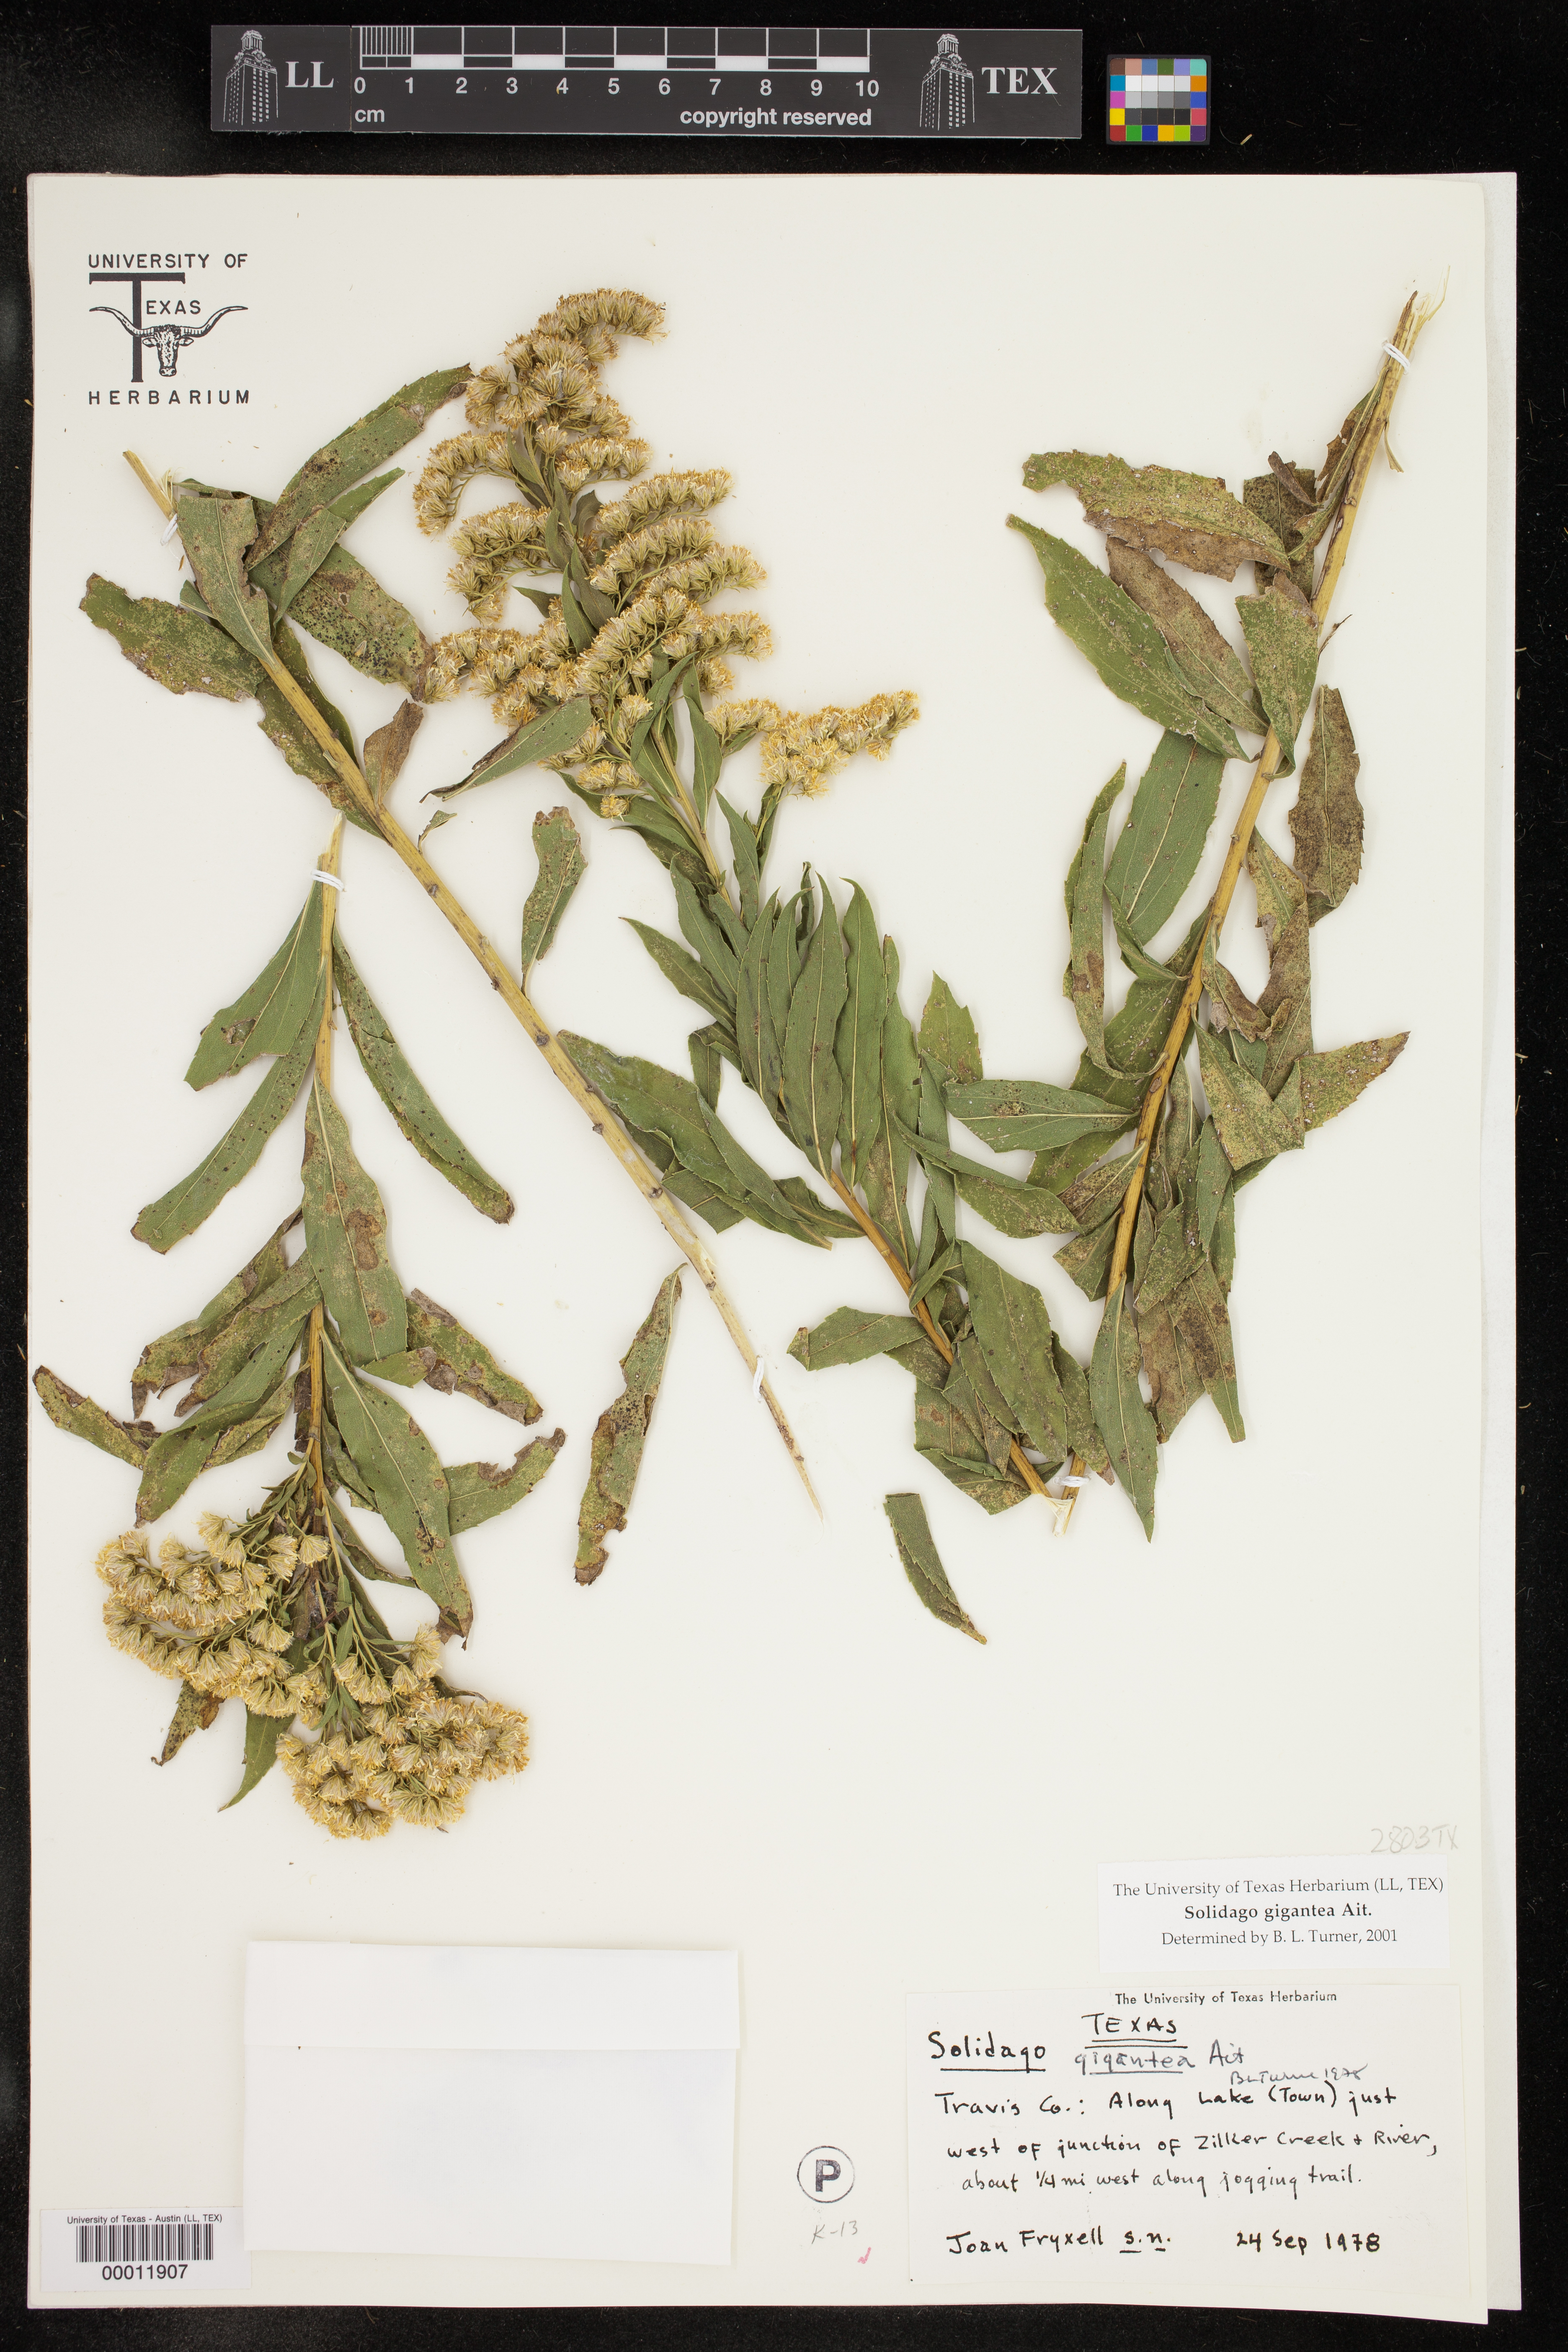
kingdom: Plantae
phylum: Tracheophyta
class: Magnoliopsida
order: Asterales
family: Asteraceae
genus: Solidago
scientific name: Solidago gigantea
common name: Giant goldenrod
